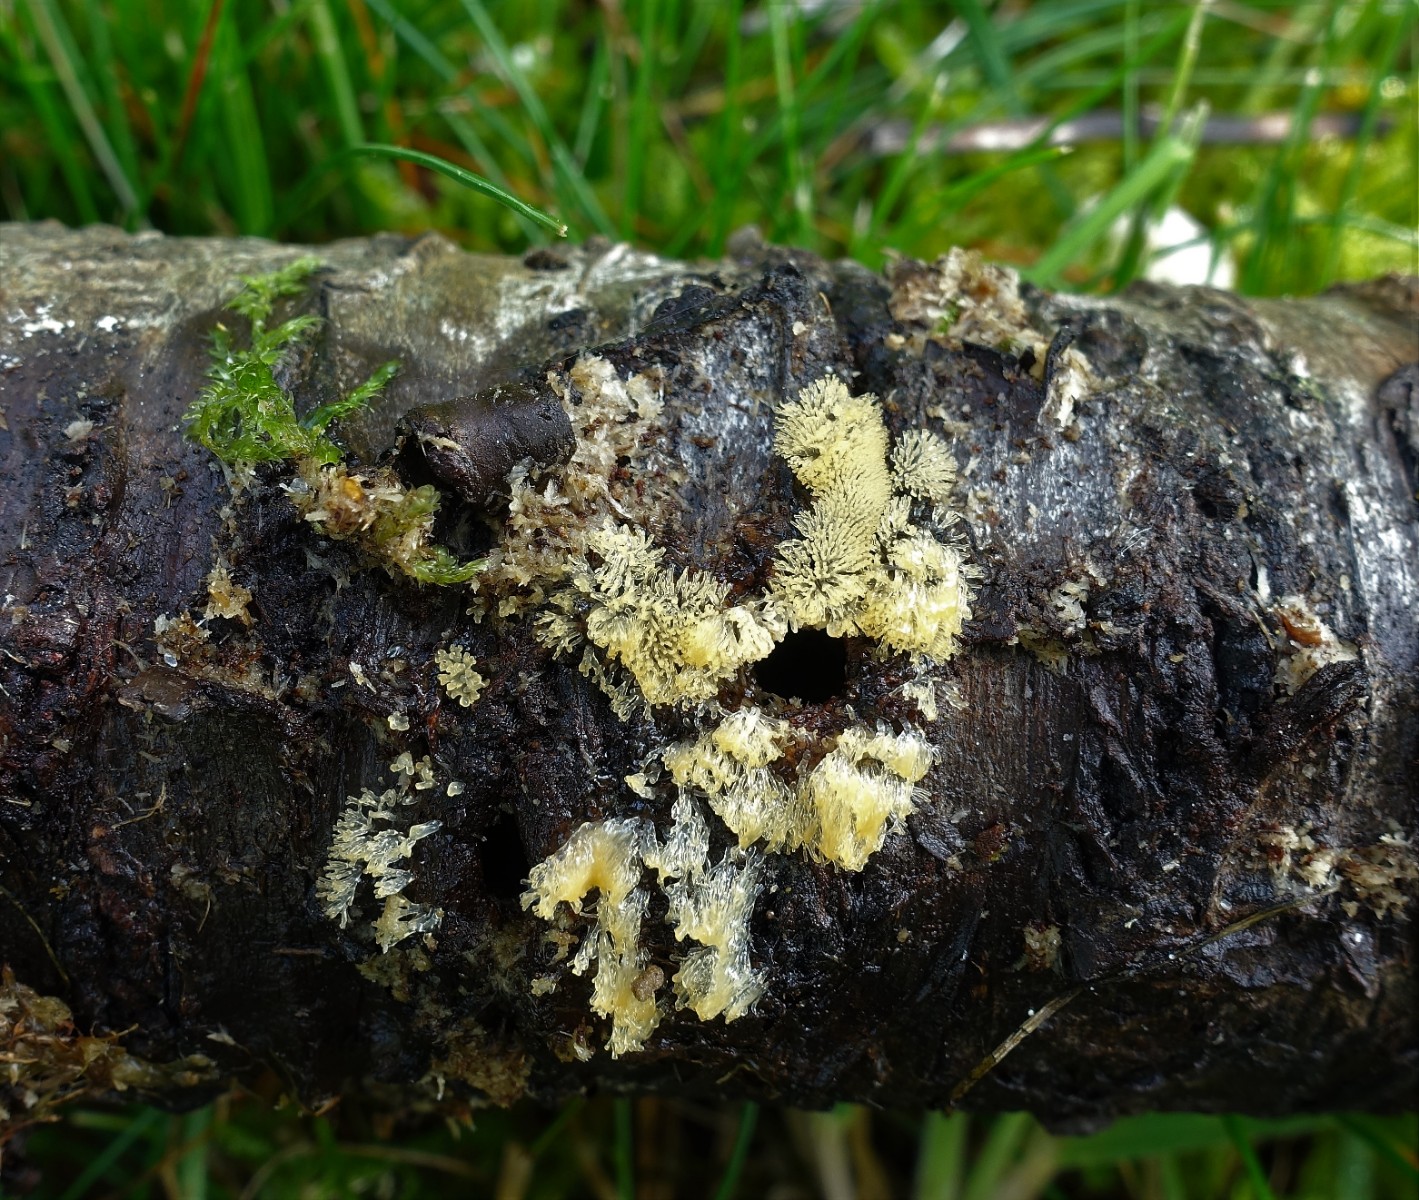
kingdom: Protozoa
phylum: Mycetozoa
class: Protosteliomycetes
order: Ceratiomyxales
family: Ceratiomyxaceae
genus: Ceratiomyxa
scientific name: Ceratiomyxa fruticulosa
